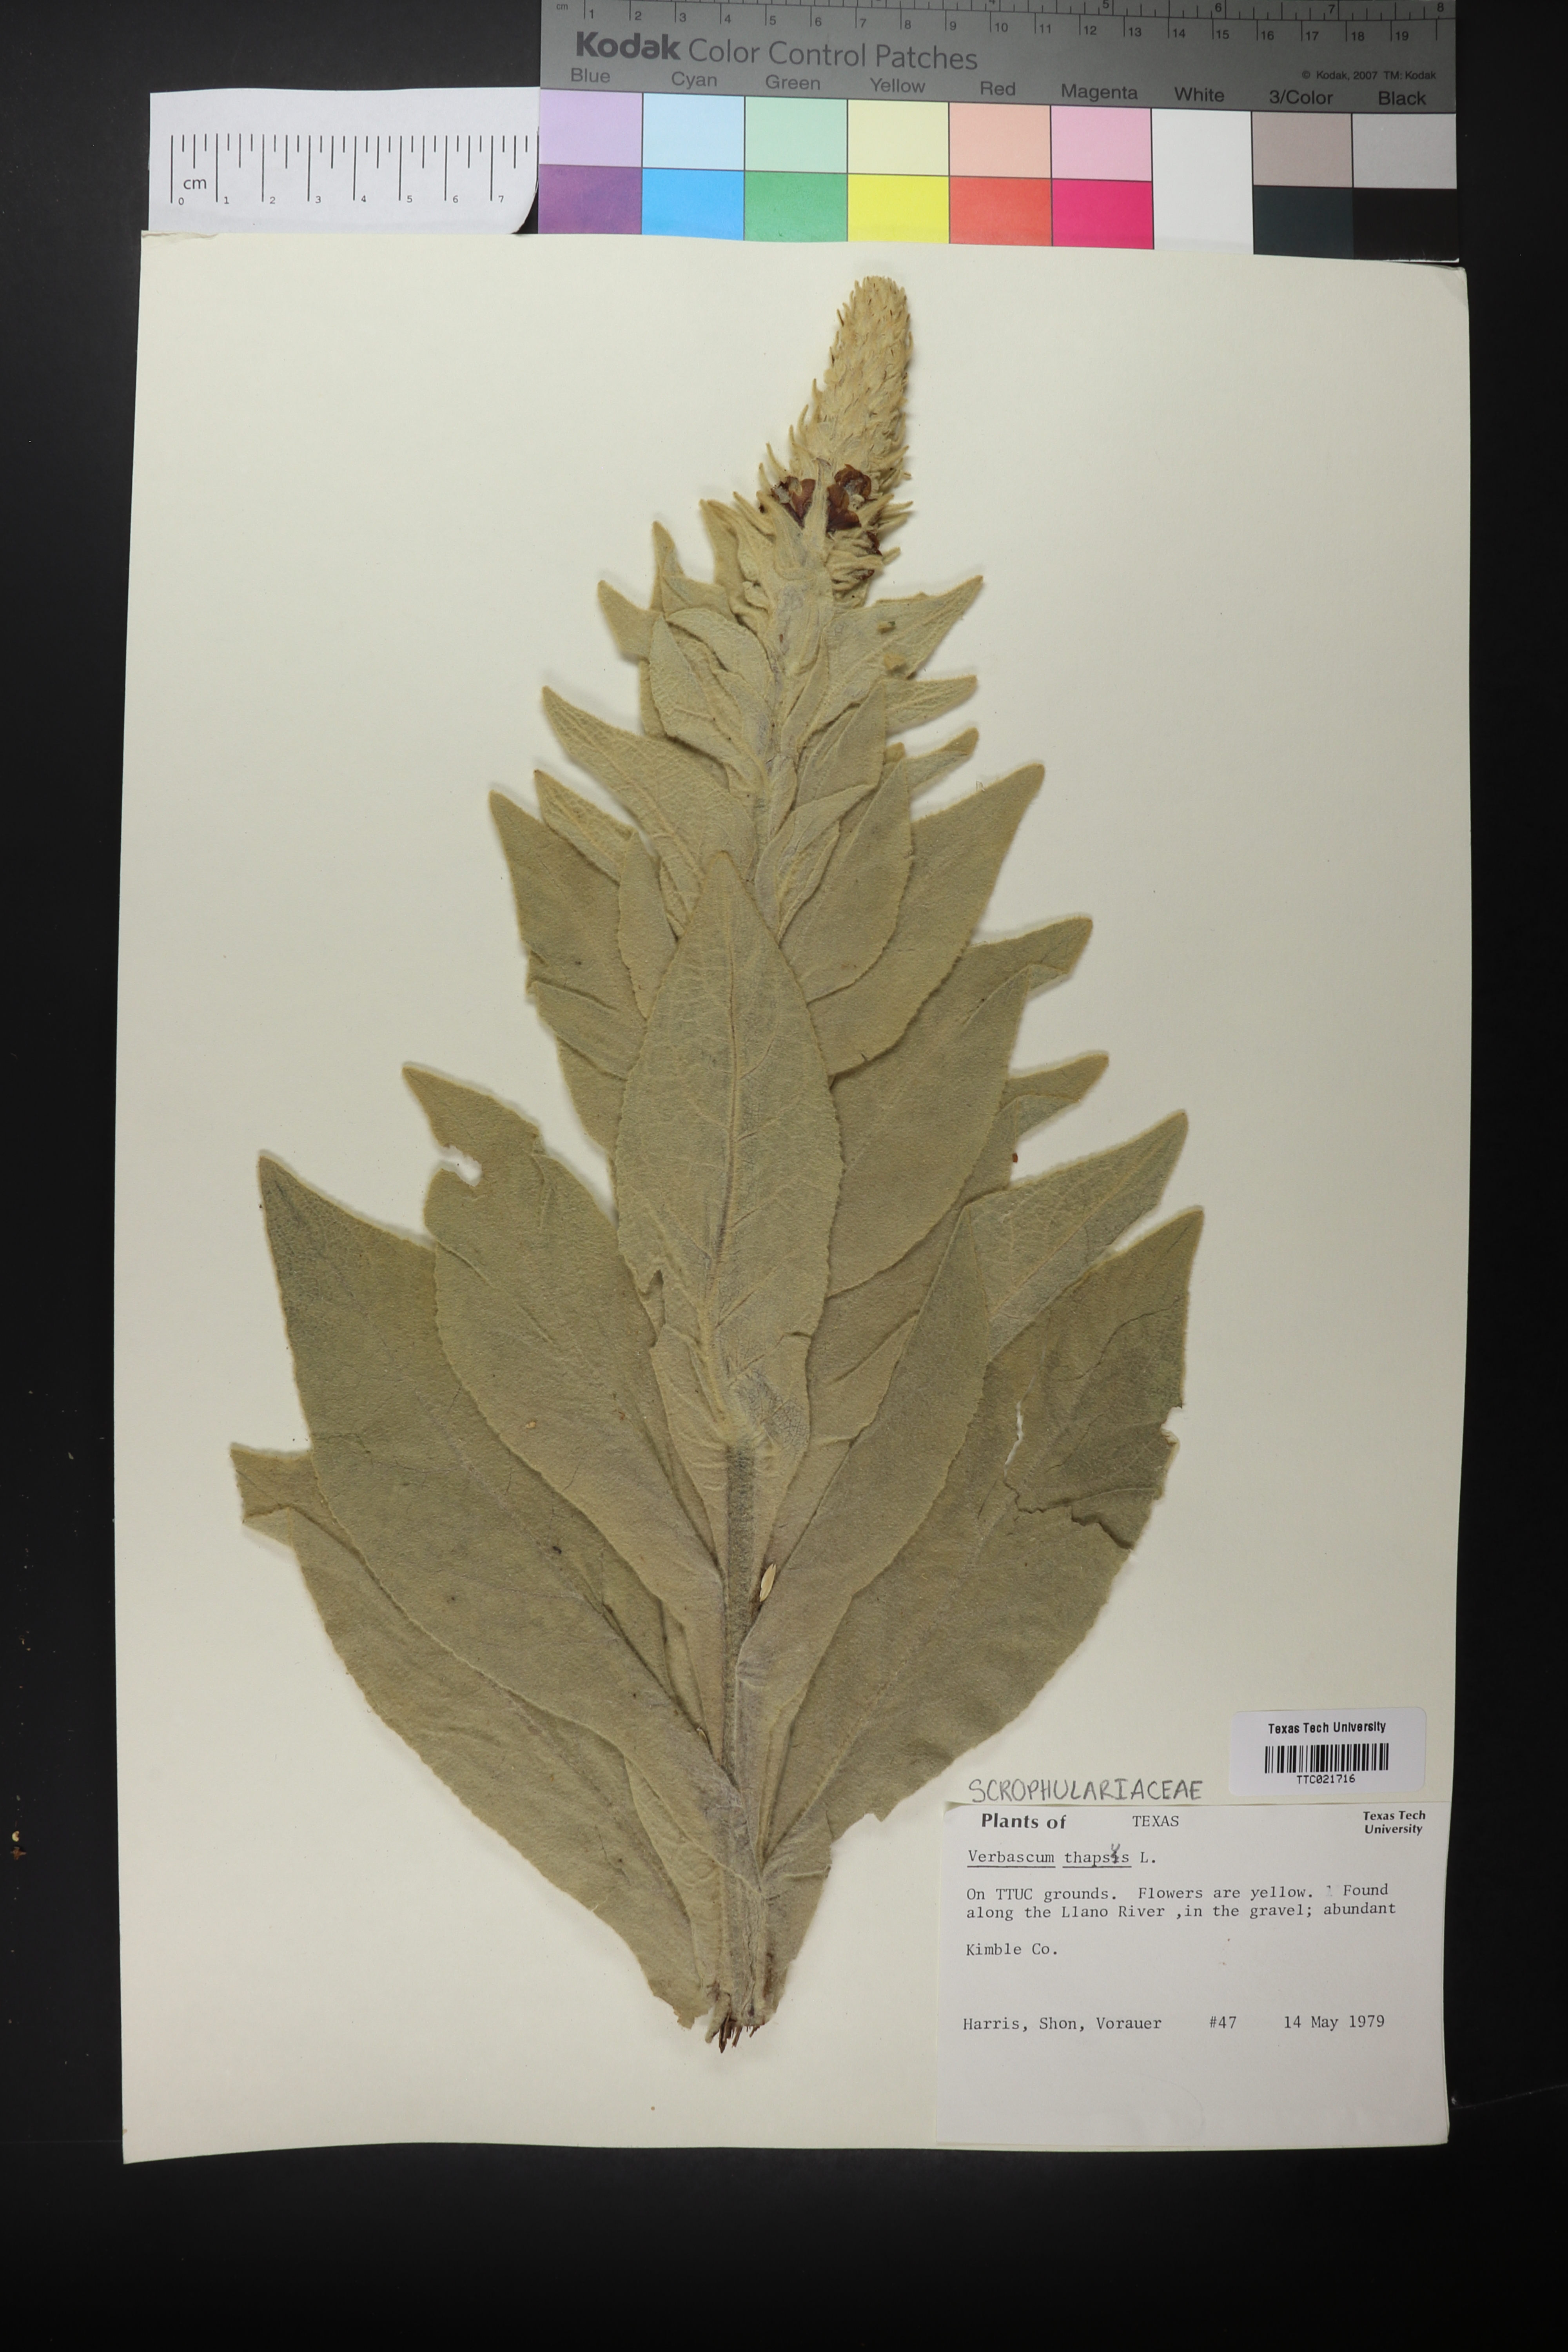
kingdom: Plantae
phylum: Tracheophyta
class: Magnoliopsida
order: Lamiales
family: Scrophulariaceae
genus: Verbascum
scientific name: Verbascum thapsus
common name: Common mullein
